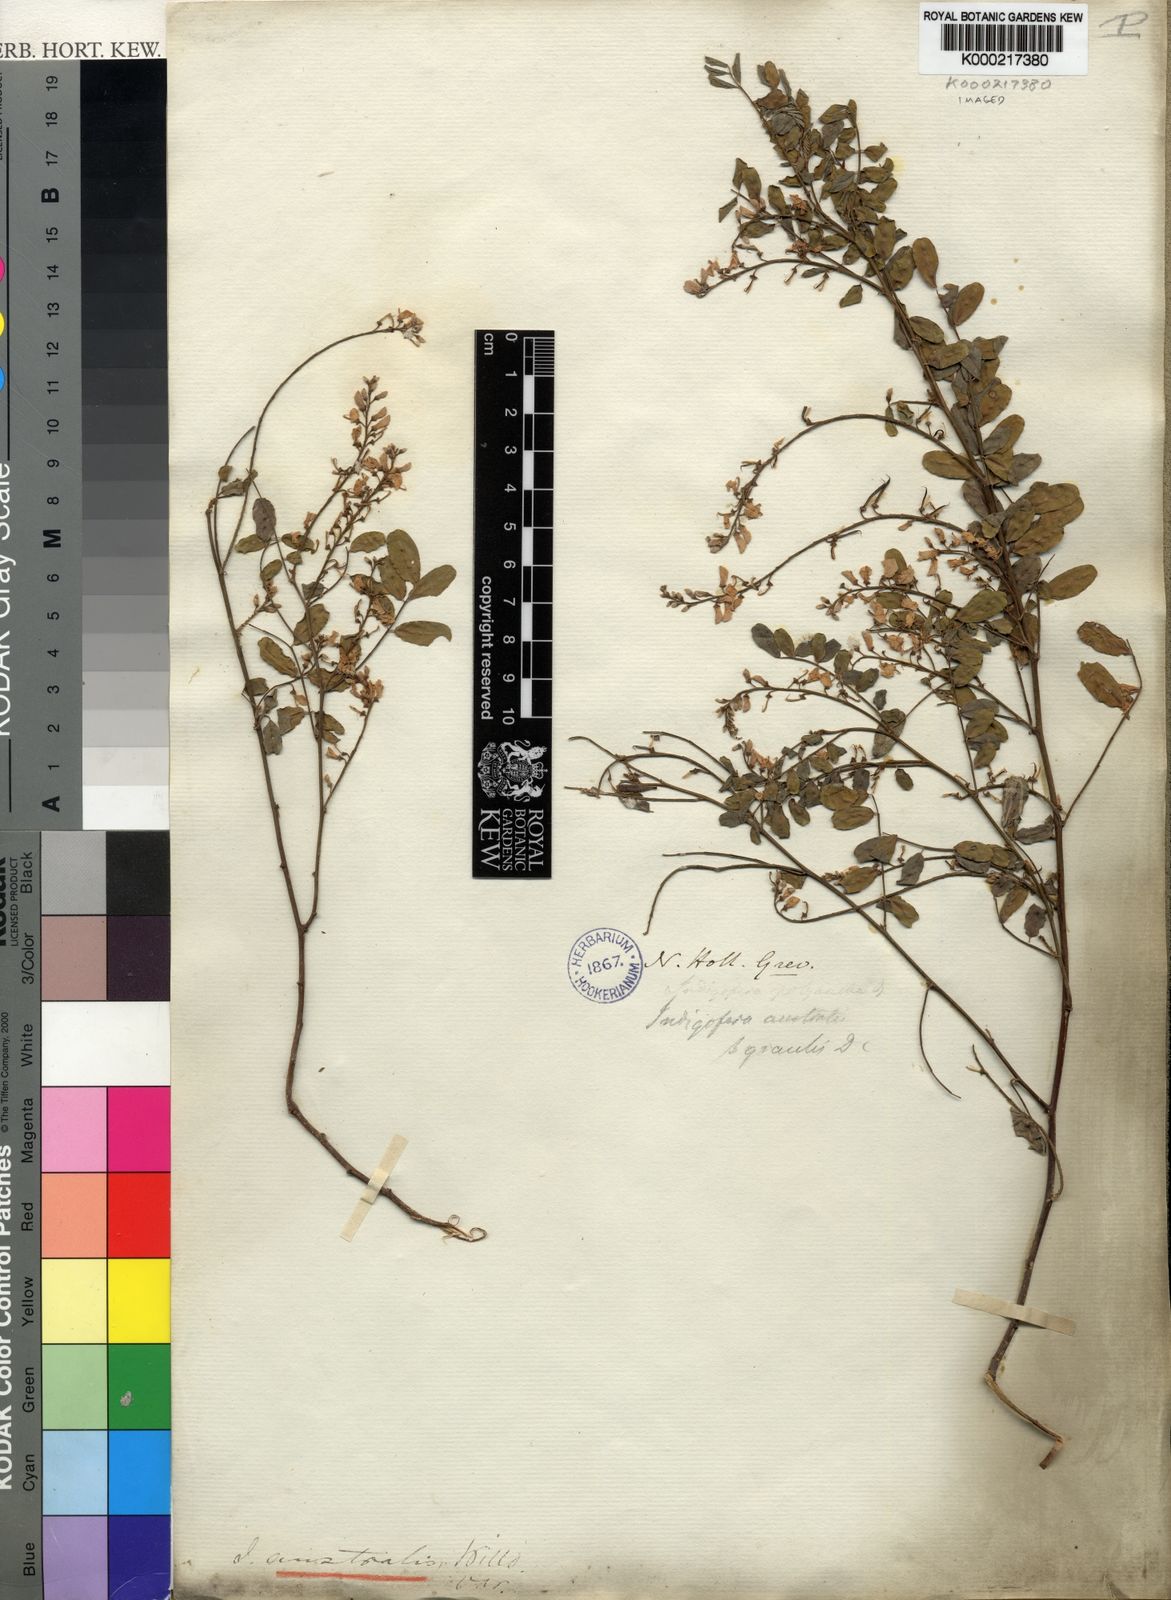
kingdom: Plantae
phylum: Tracheophyta
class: Magnoliopsida
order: Fabales
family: Fabaceae
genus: Indigofera
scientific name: Indigofera australis
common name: Australian indigo
